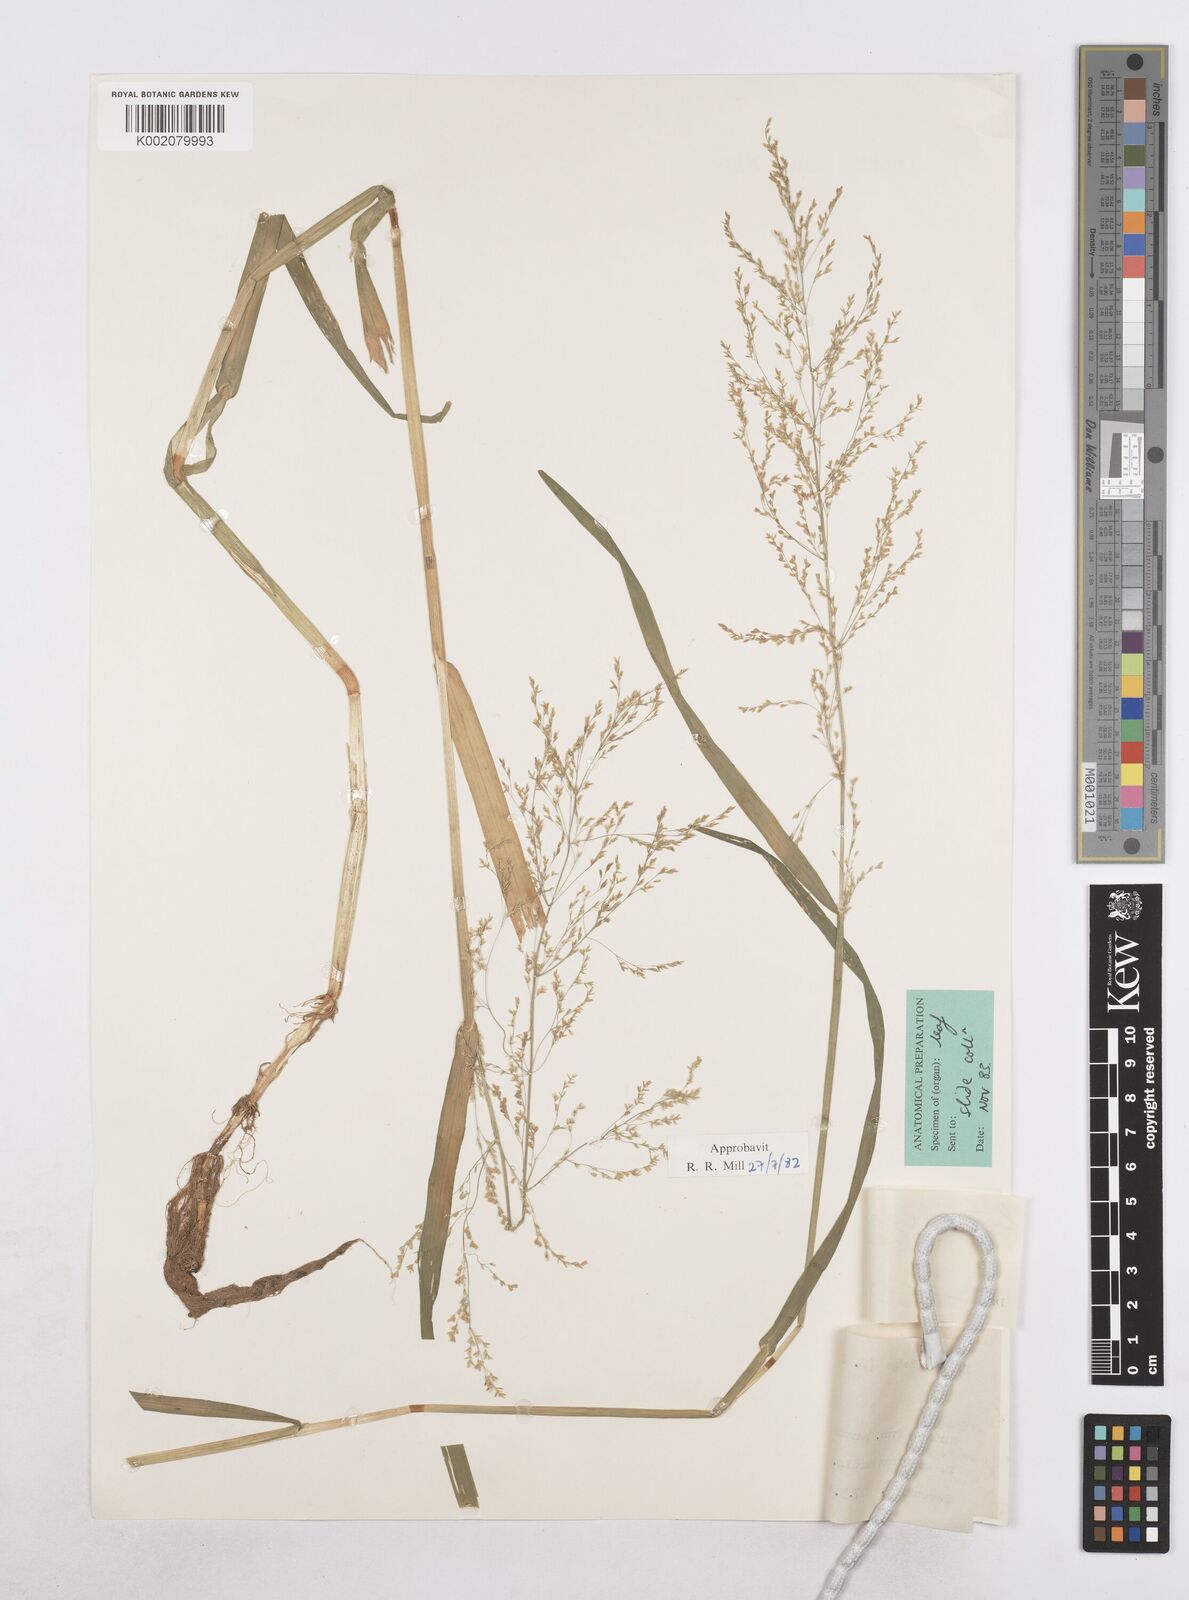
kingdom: Plantae
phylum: Tracheophyta
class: Liliopsida
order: Poales
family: Poaceae
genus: Catabrosa
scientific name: Catabrosa aquatica
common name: Whorl-grass
